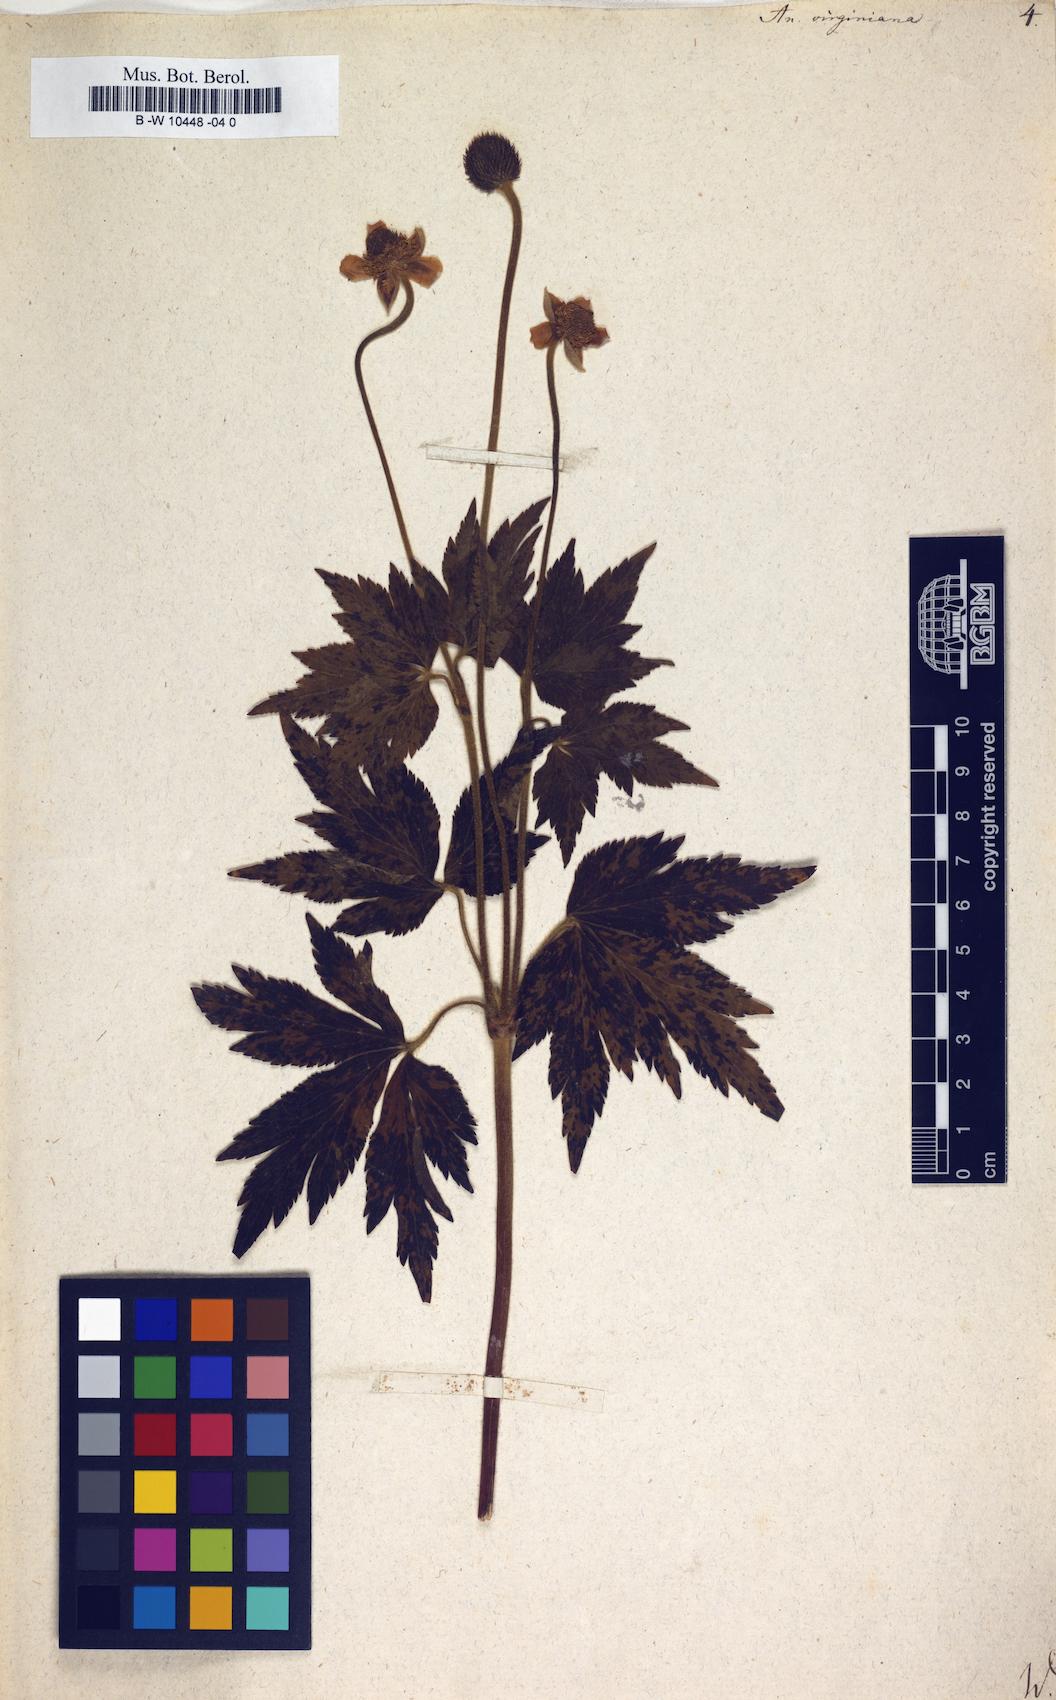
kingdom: Plantae
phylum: Tracheophyta
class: Magnoliopsida
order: Ranunculales
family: Ranunculaceae
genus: Anemone
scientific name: Anemone virginiana
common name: Tall anemone
